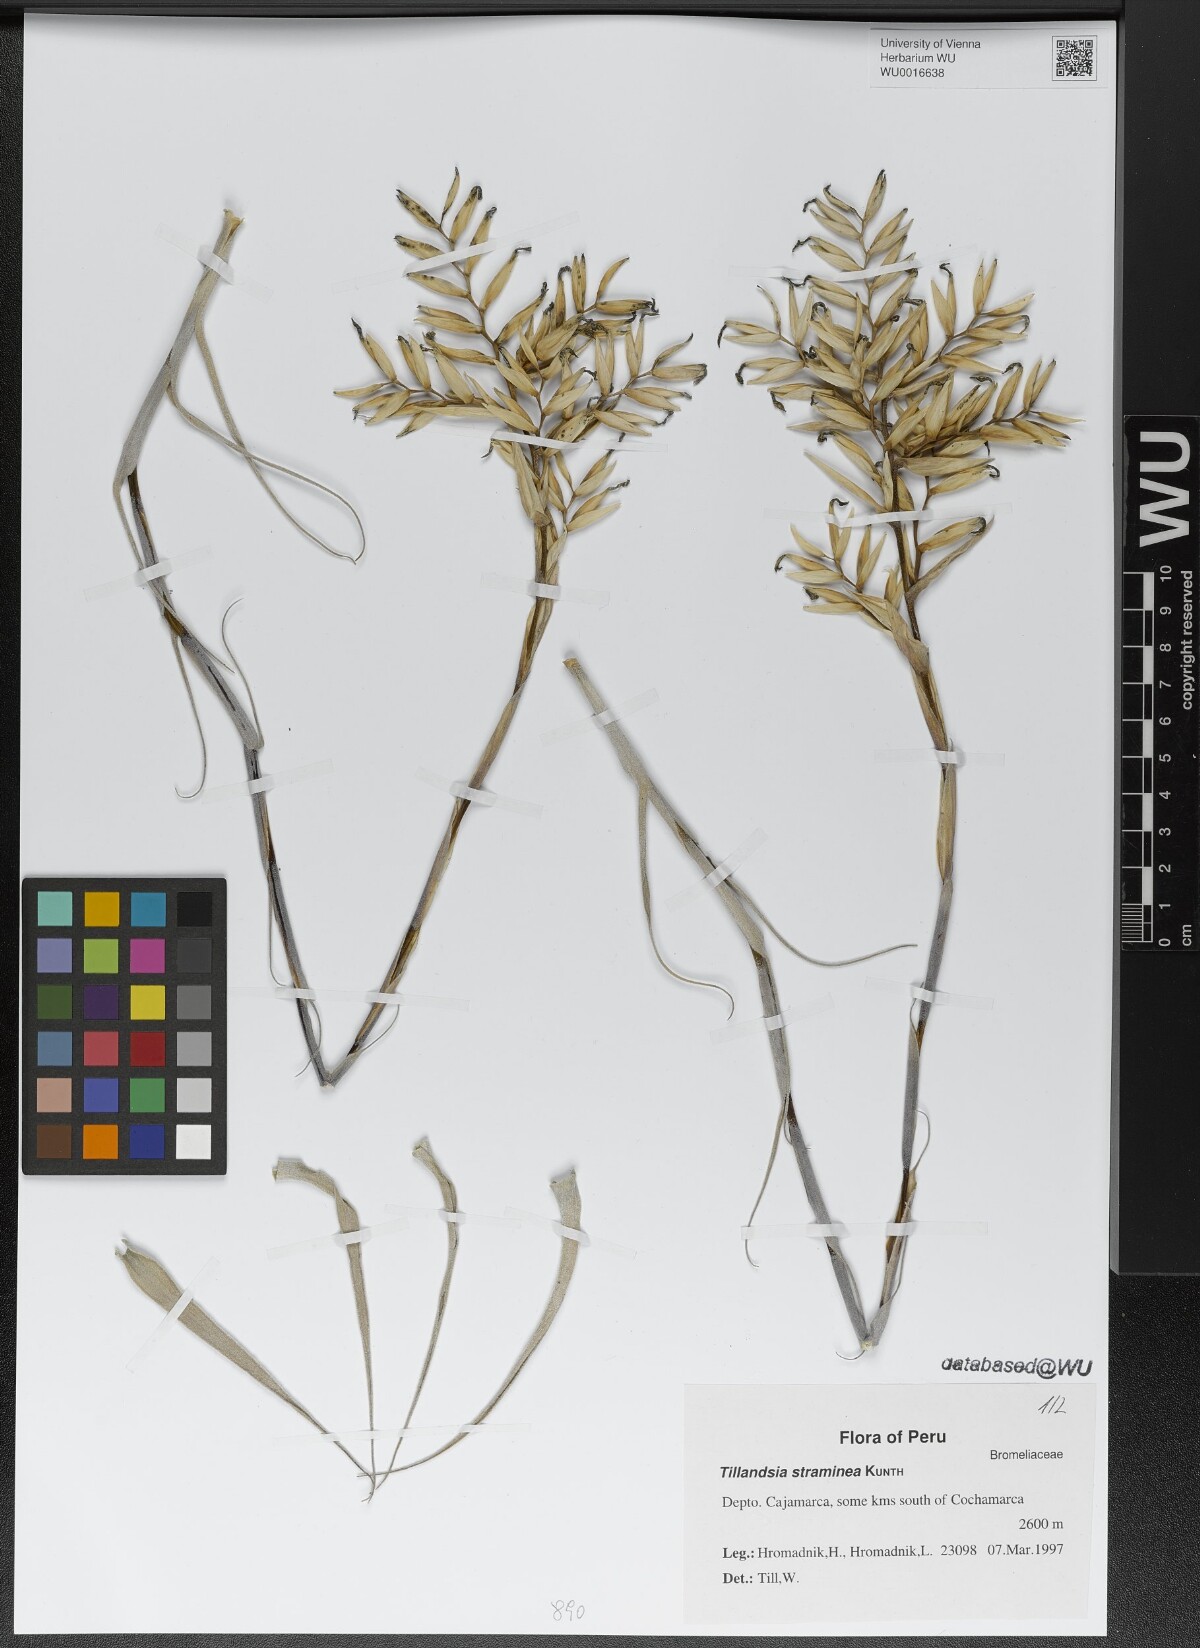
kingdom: Plantae
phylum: Tracheophyta
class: Liliopsida
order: Poales
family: Bromeliaceae
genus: Tillandsia
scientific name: Tillandsia straminea
